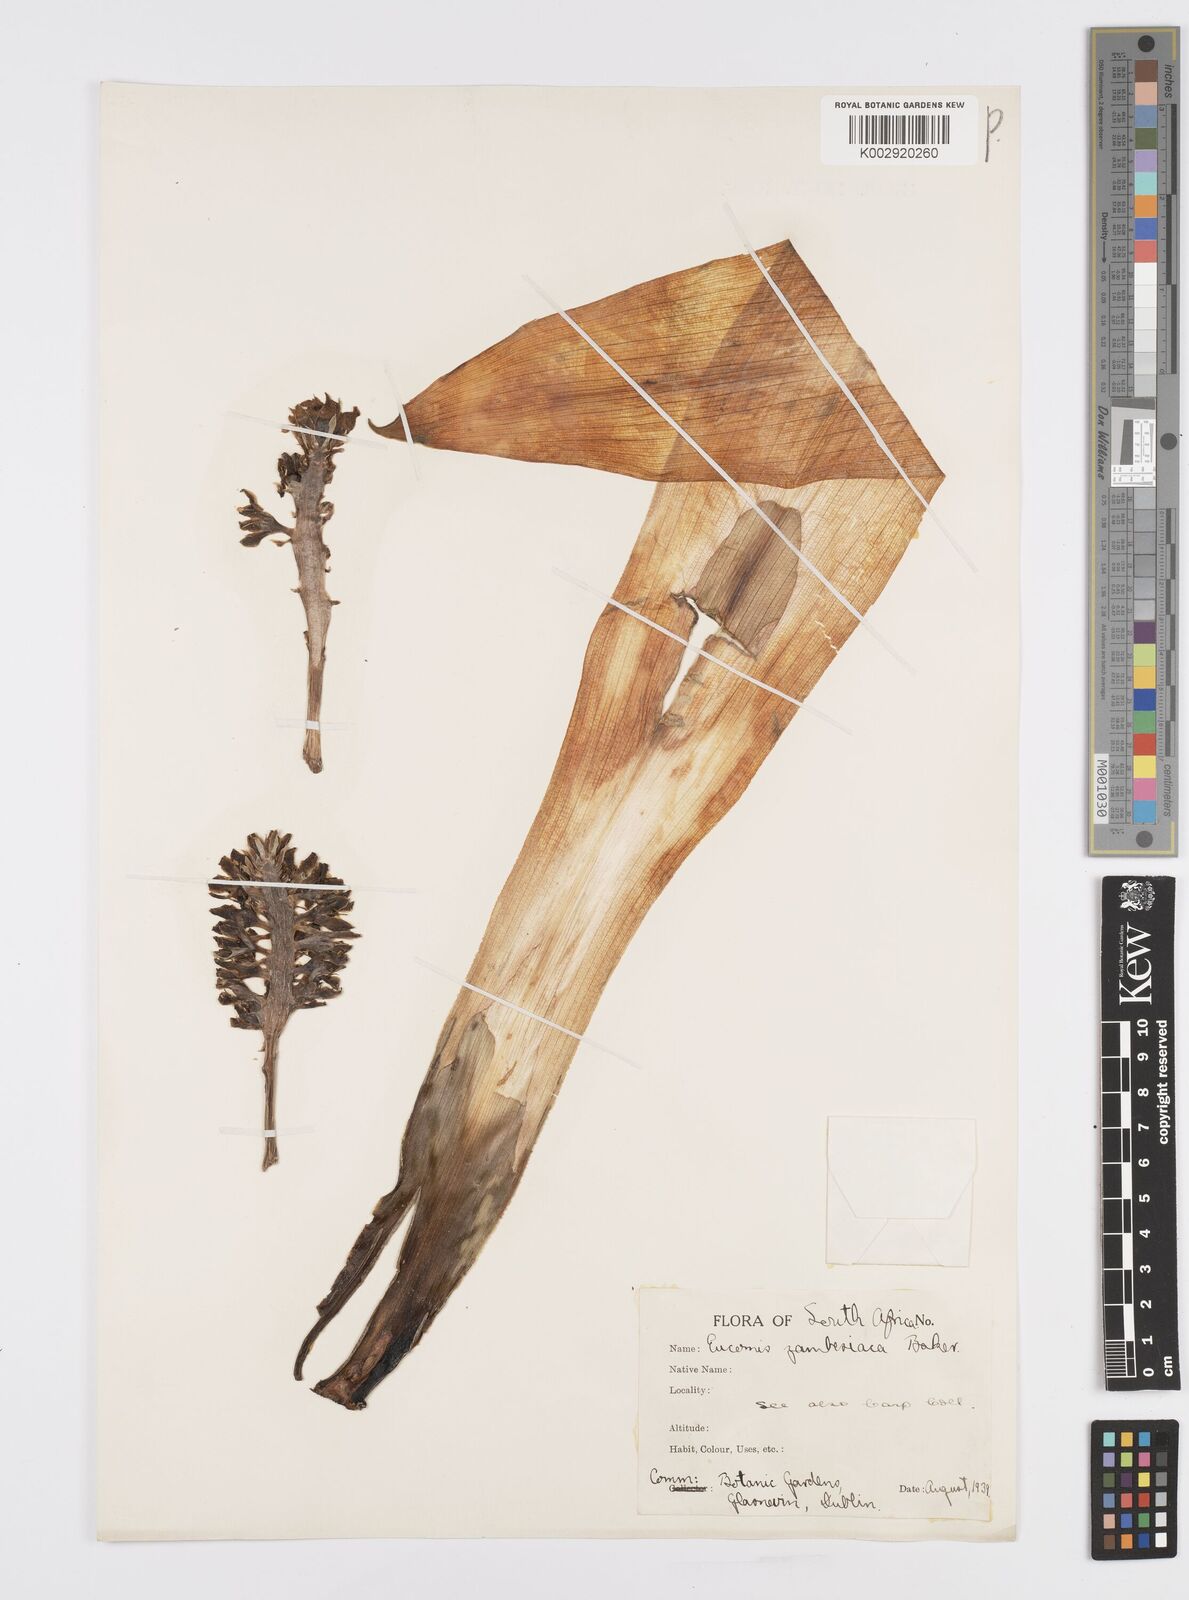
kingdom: Plantae
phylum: Tracheophyta
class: Liliopsida
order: Asparagales
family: Asparagaceae
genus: Eucomis
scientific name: Eucomis zambesiaca
